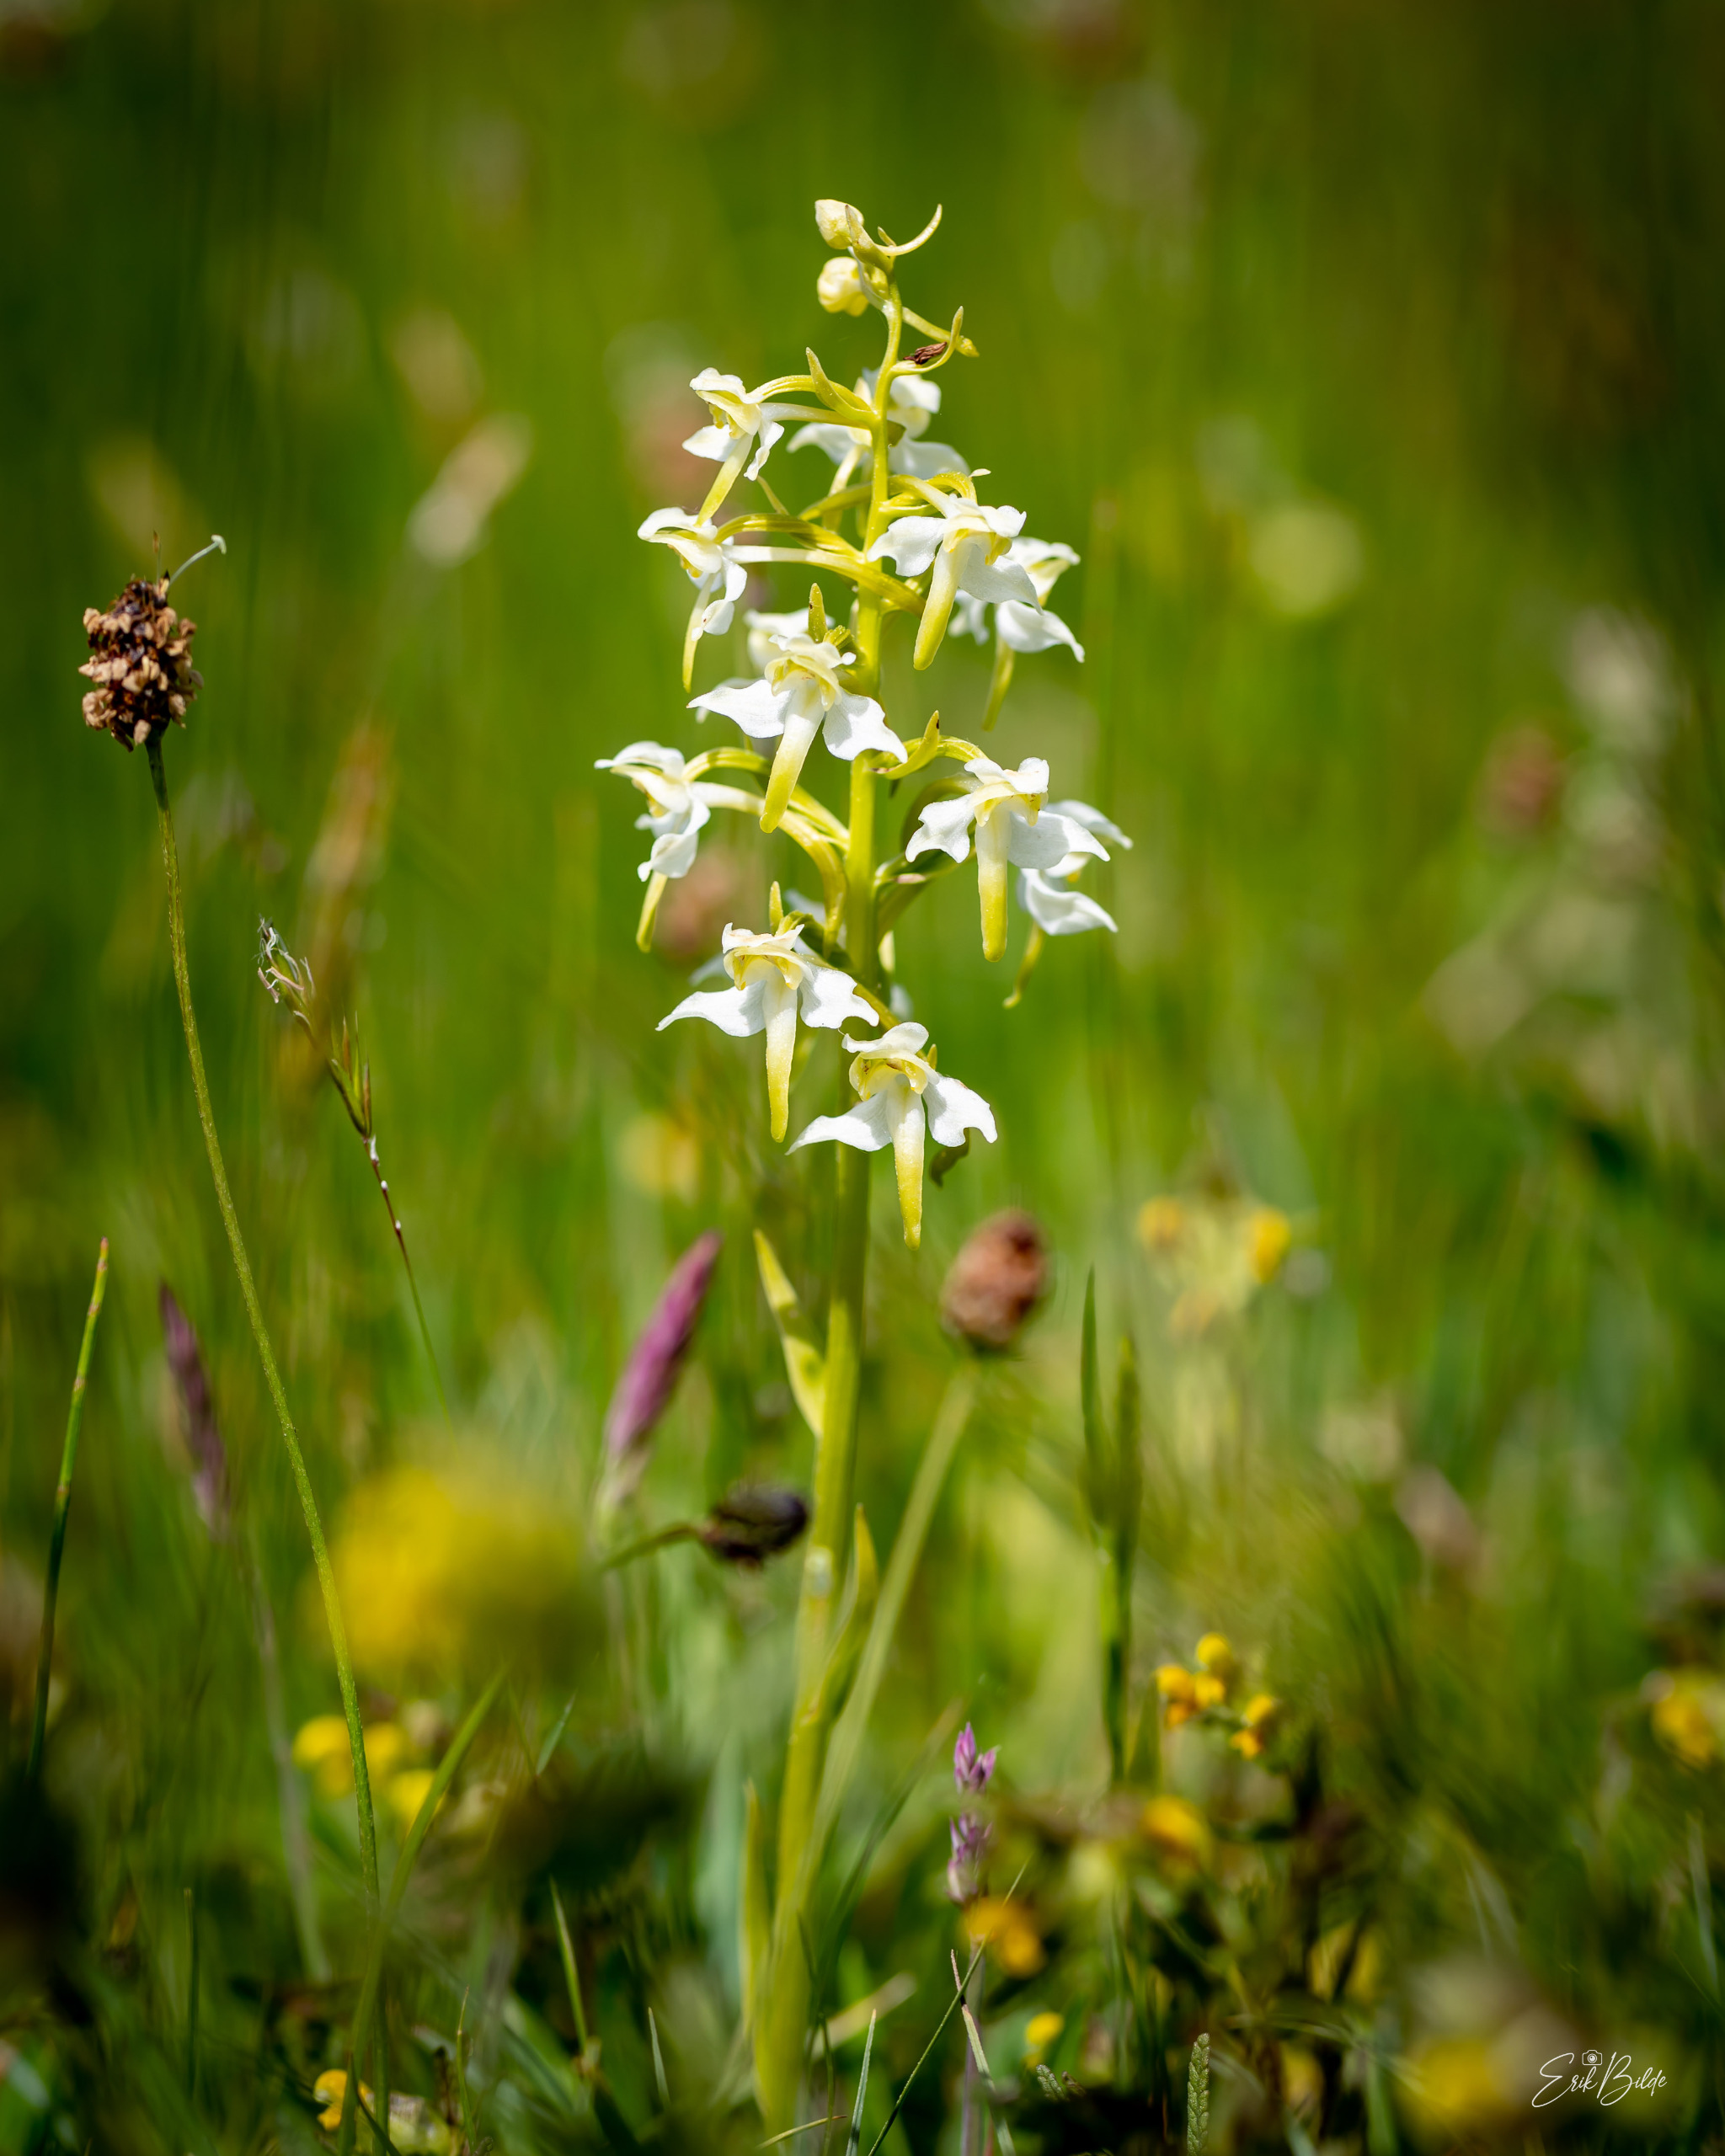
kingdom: Plantae
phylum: Tracheophyta
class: Liliopsida
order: Asparagales
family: Orchidaceae
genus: Platanthera
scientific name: Platanthera chlorantha
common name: Skov-gøgelilje
